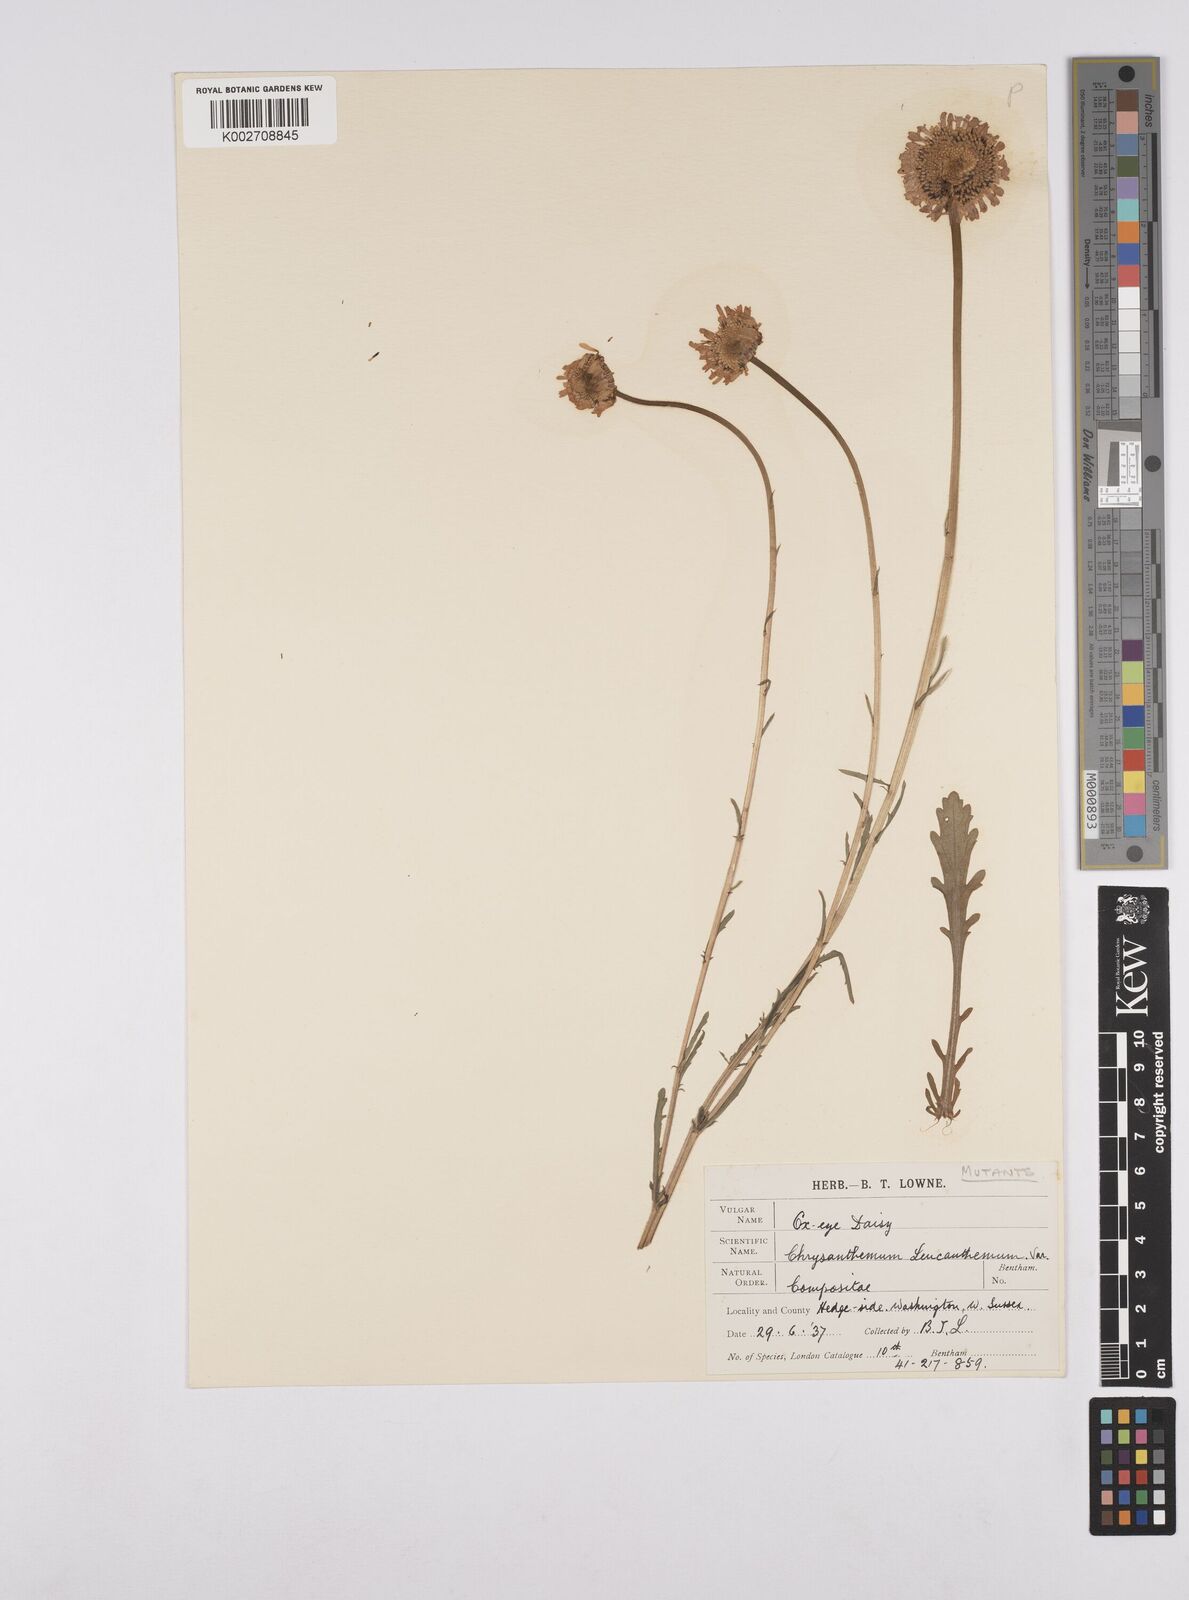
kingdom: Plantae
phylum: Tracheophyta
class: Magnoliopsida
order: Asterales
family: Asteraceae
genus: Leucanthemum
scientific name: Leucanthemum
